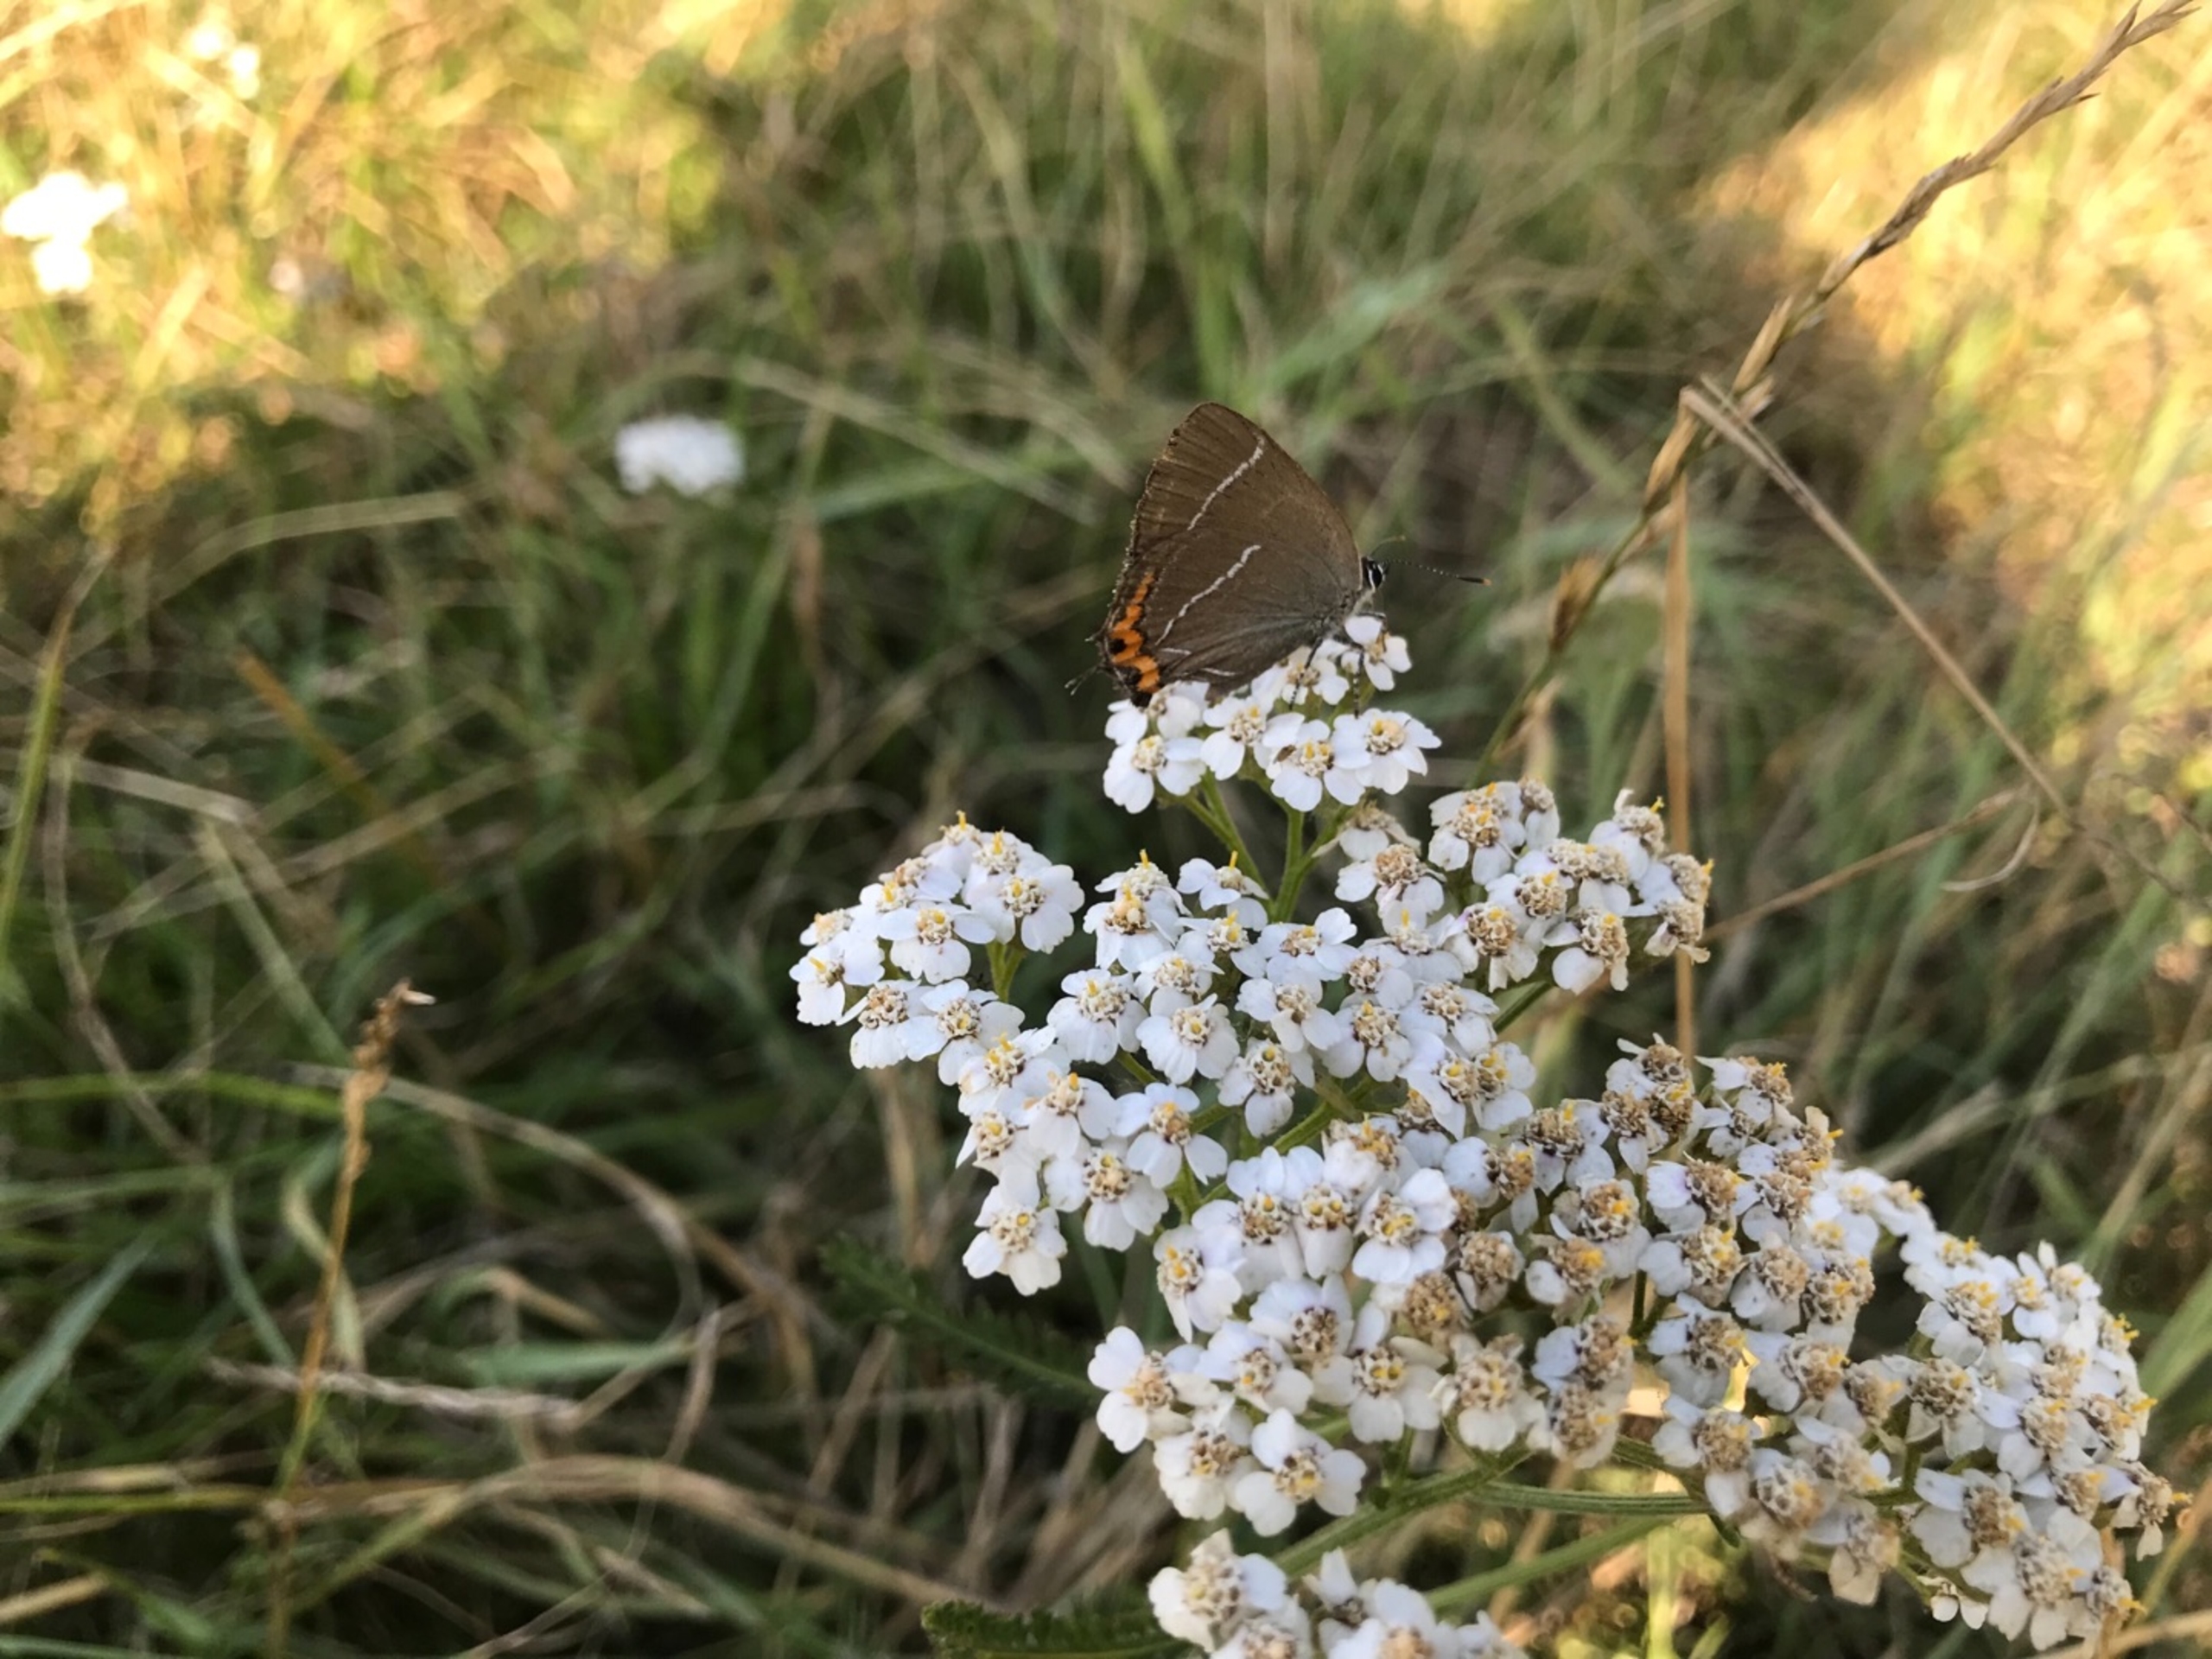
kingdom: Animalia
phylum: Arthropoda
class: Insecta
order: Lepidoptera
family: Lycaenidae
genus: Satyrium
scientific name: Satyrium w-album
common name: Det hvide W
